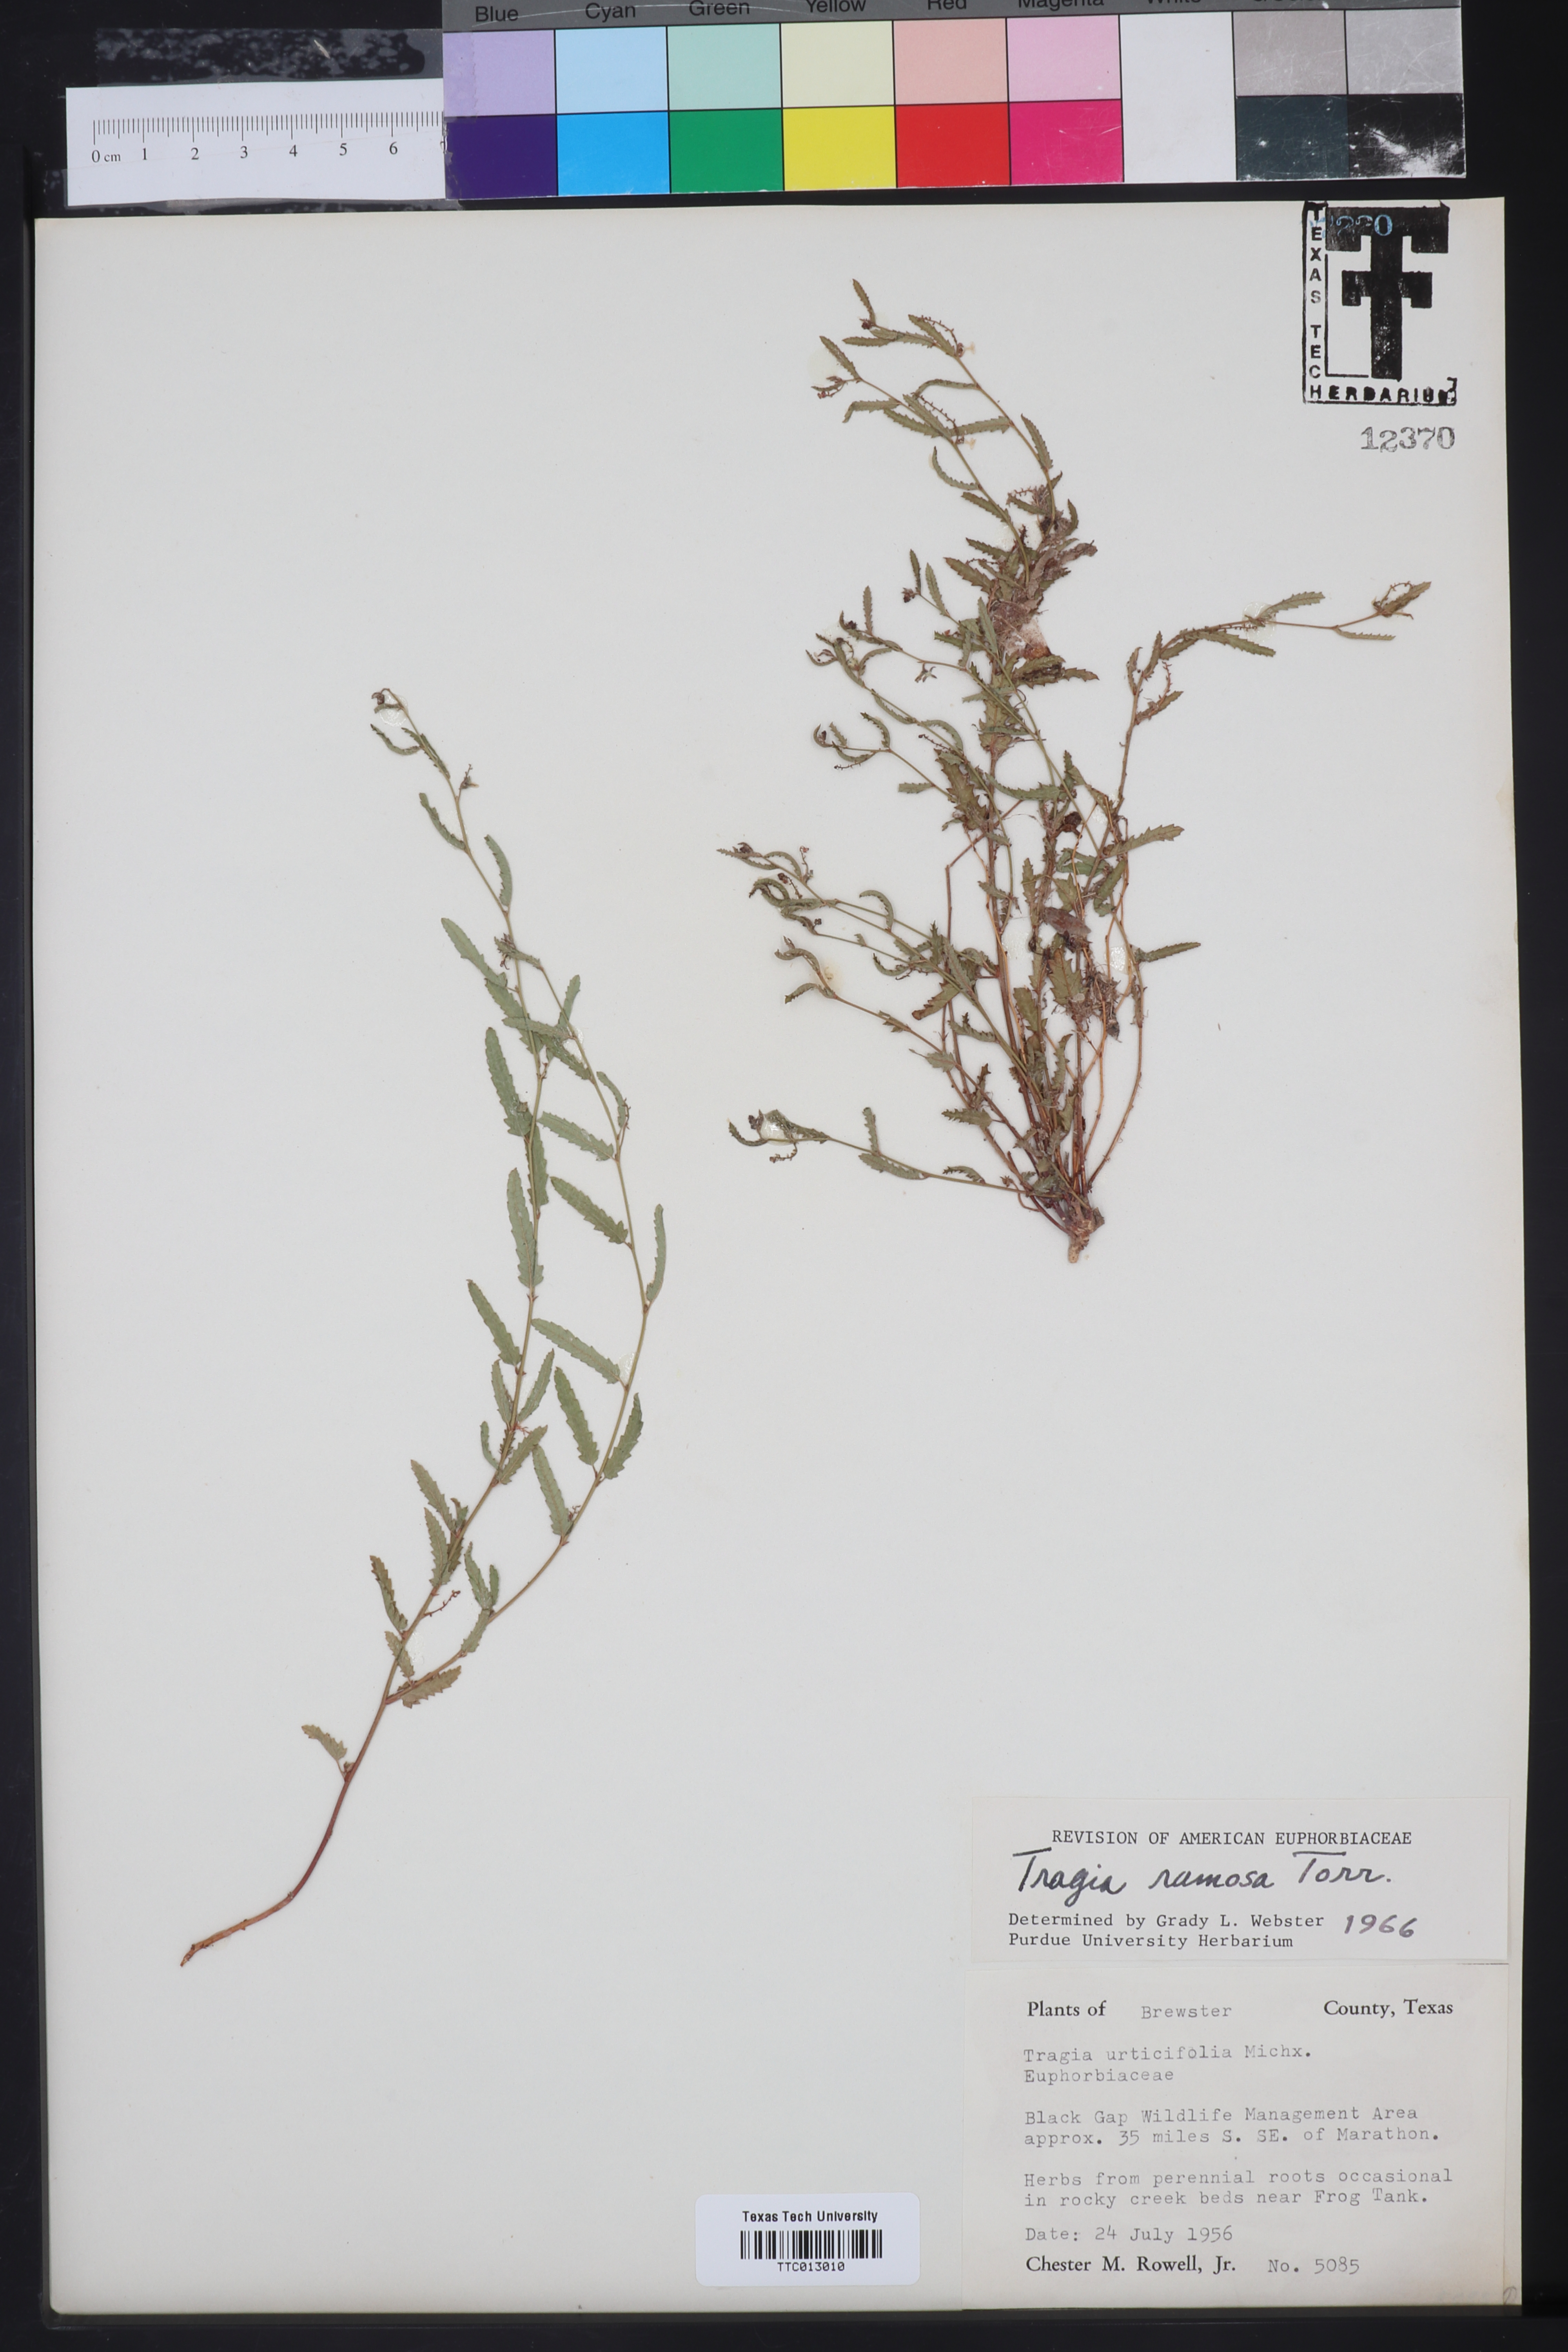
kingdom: Plantae
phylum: Tracheophyta
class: Magnoliopsida
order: Malpighiales
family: Euphorbiaceae
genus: Tragia
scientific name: Tragia ramosa
